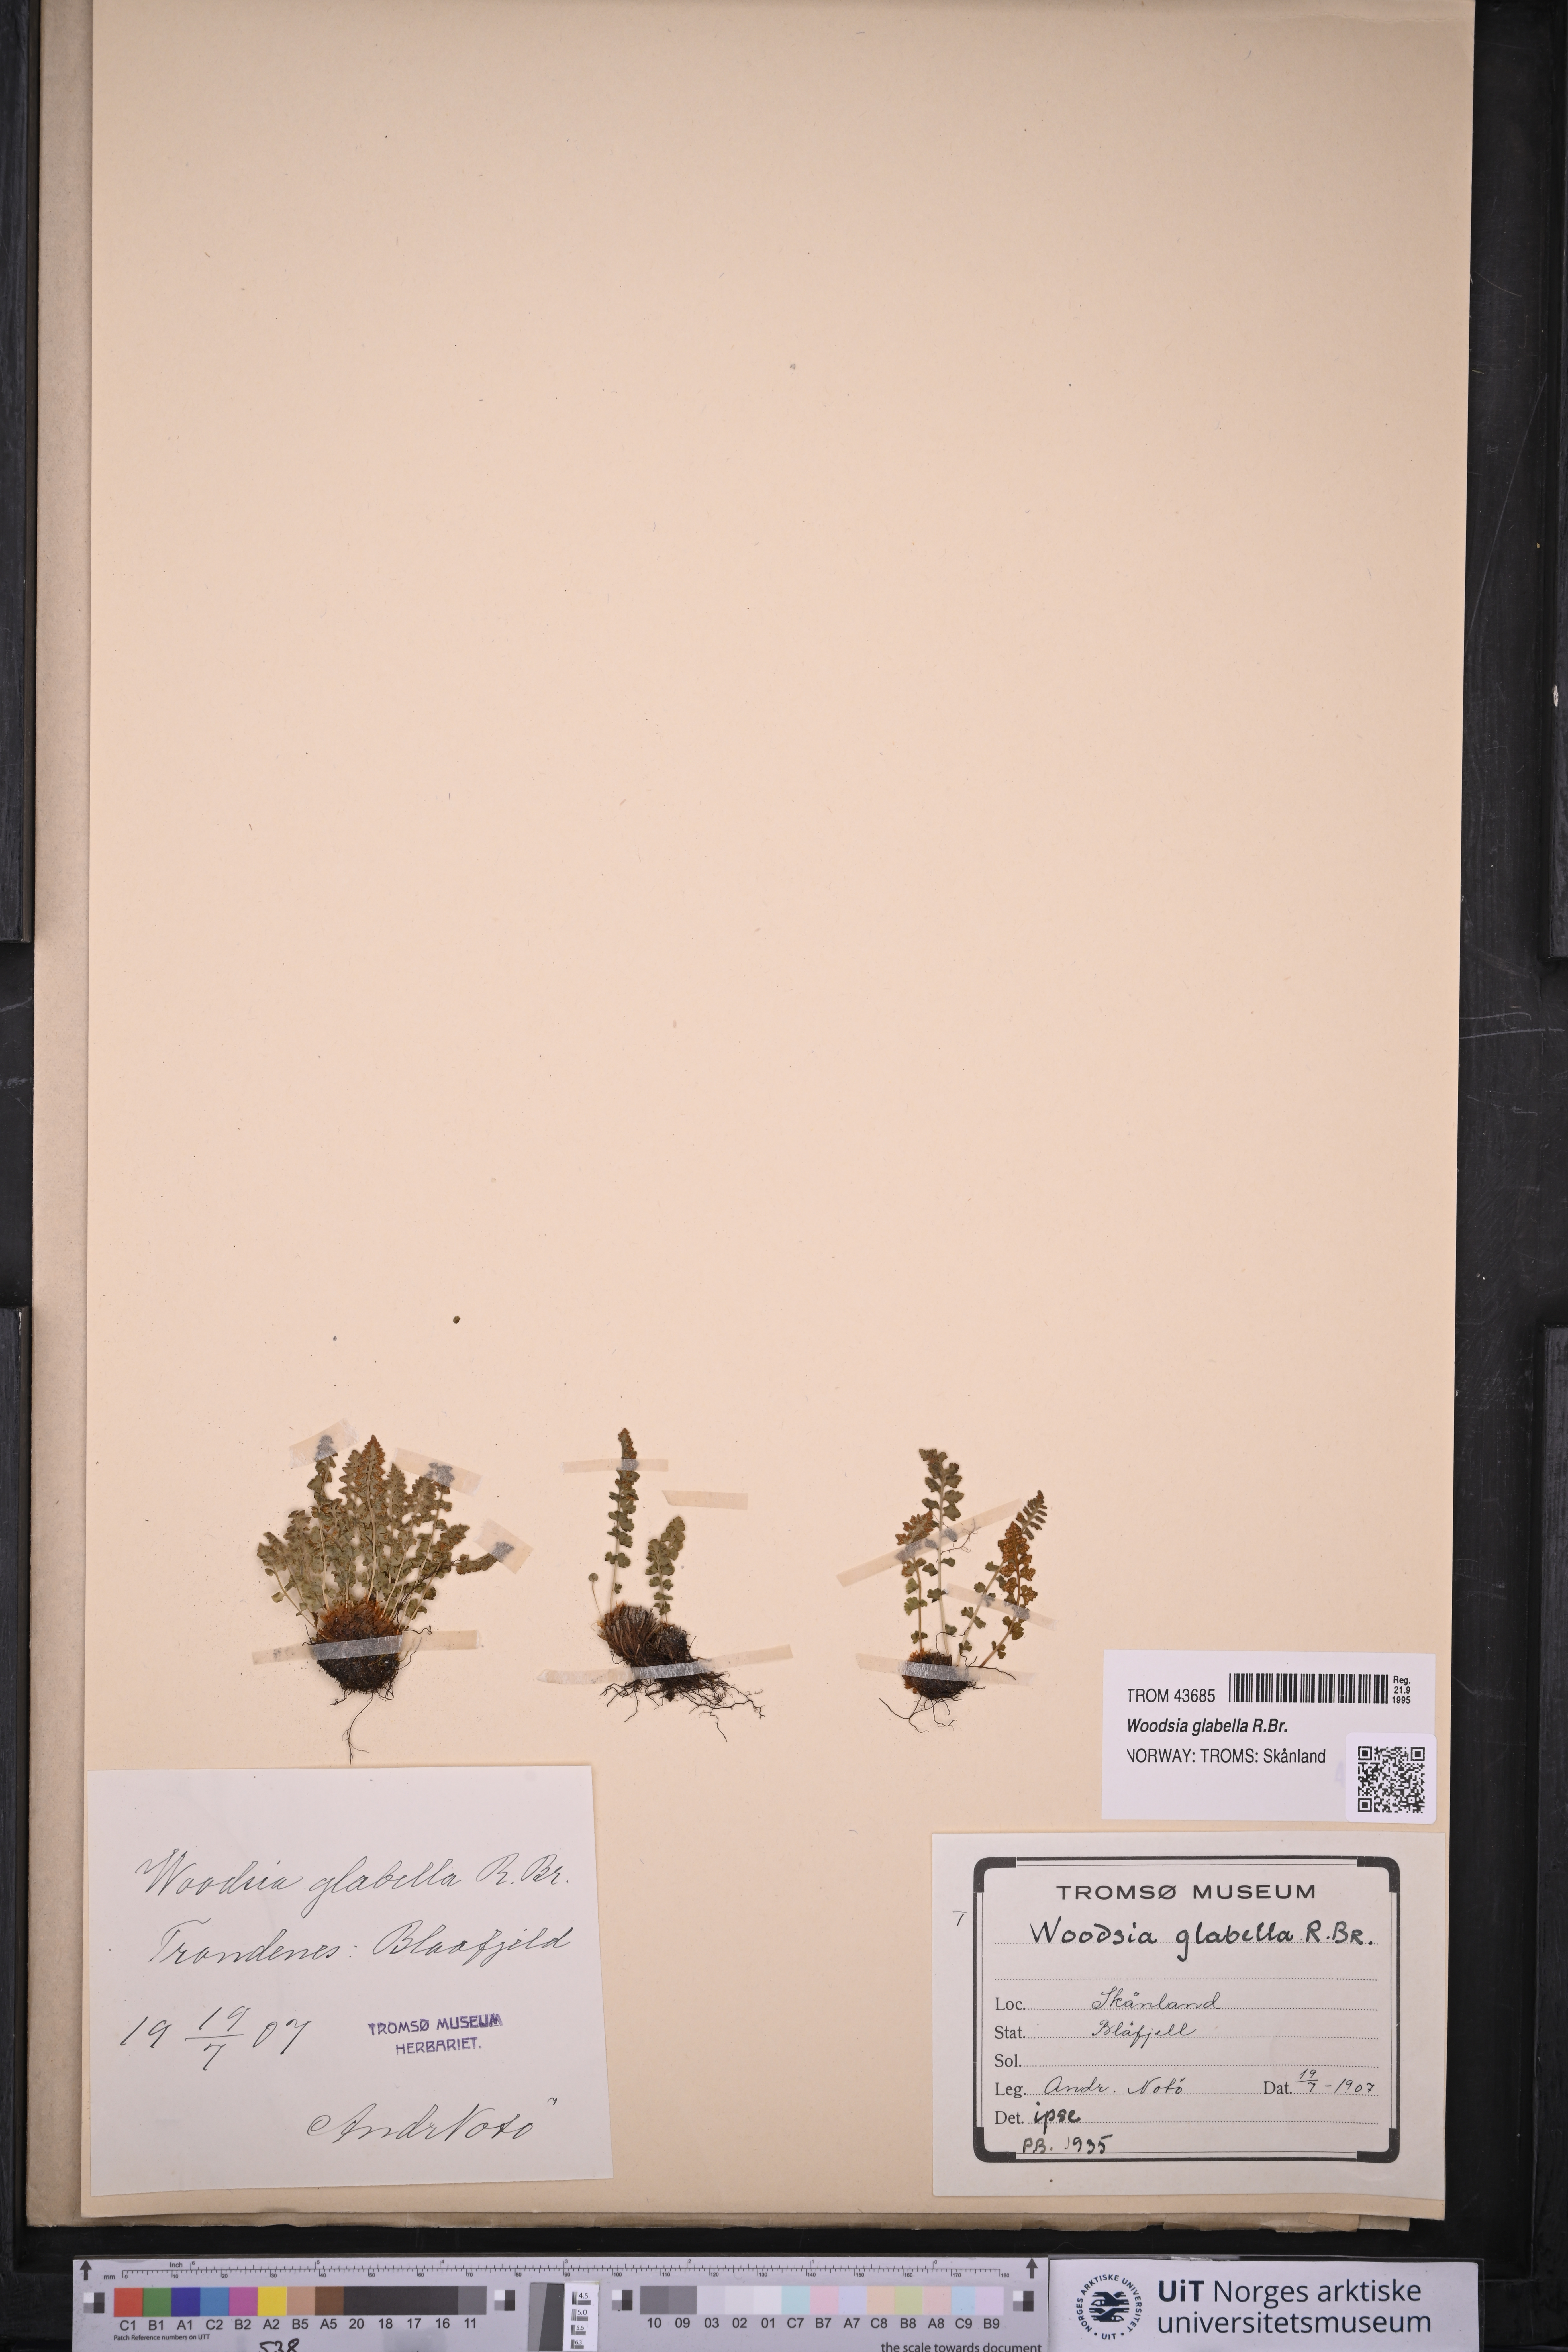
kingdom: Plantae
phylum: Tracheophyta
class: Polypodiopsida
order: Polypodiales
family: Woodsiaceae
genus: Woodsia
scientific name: Woodsia glabella
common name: Smooth woodsia
